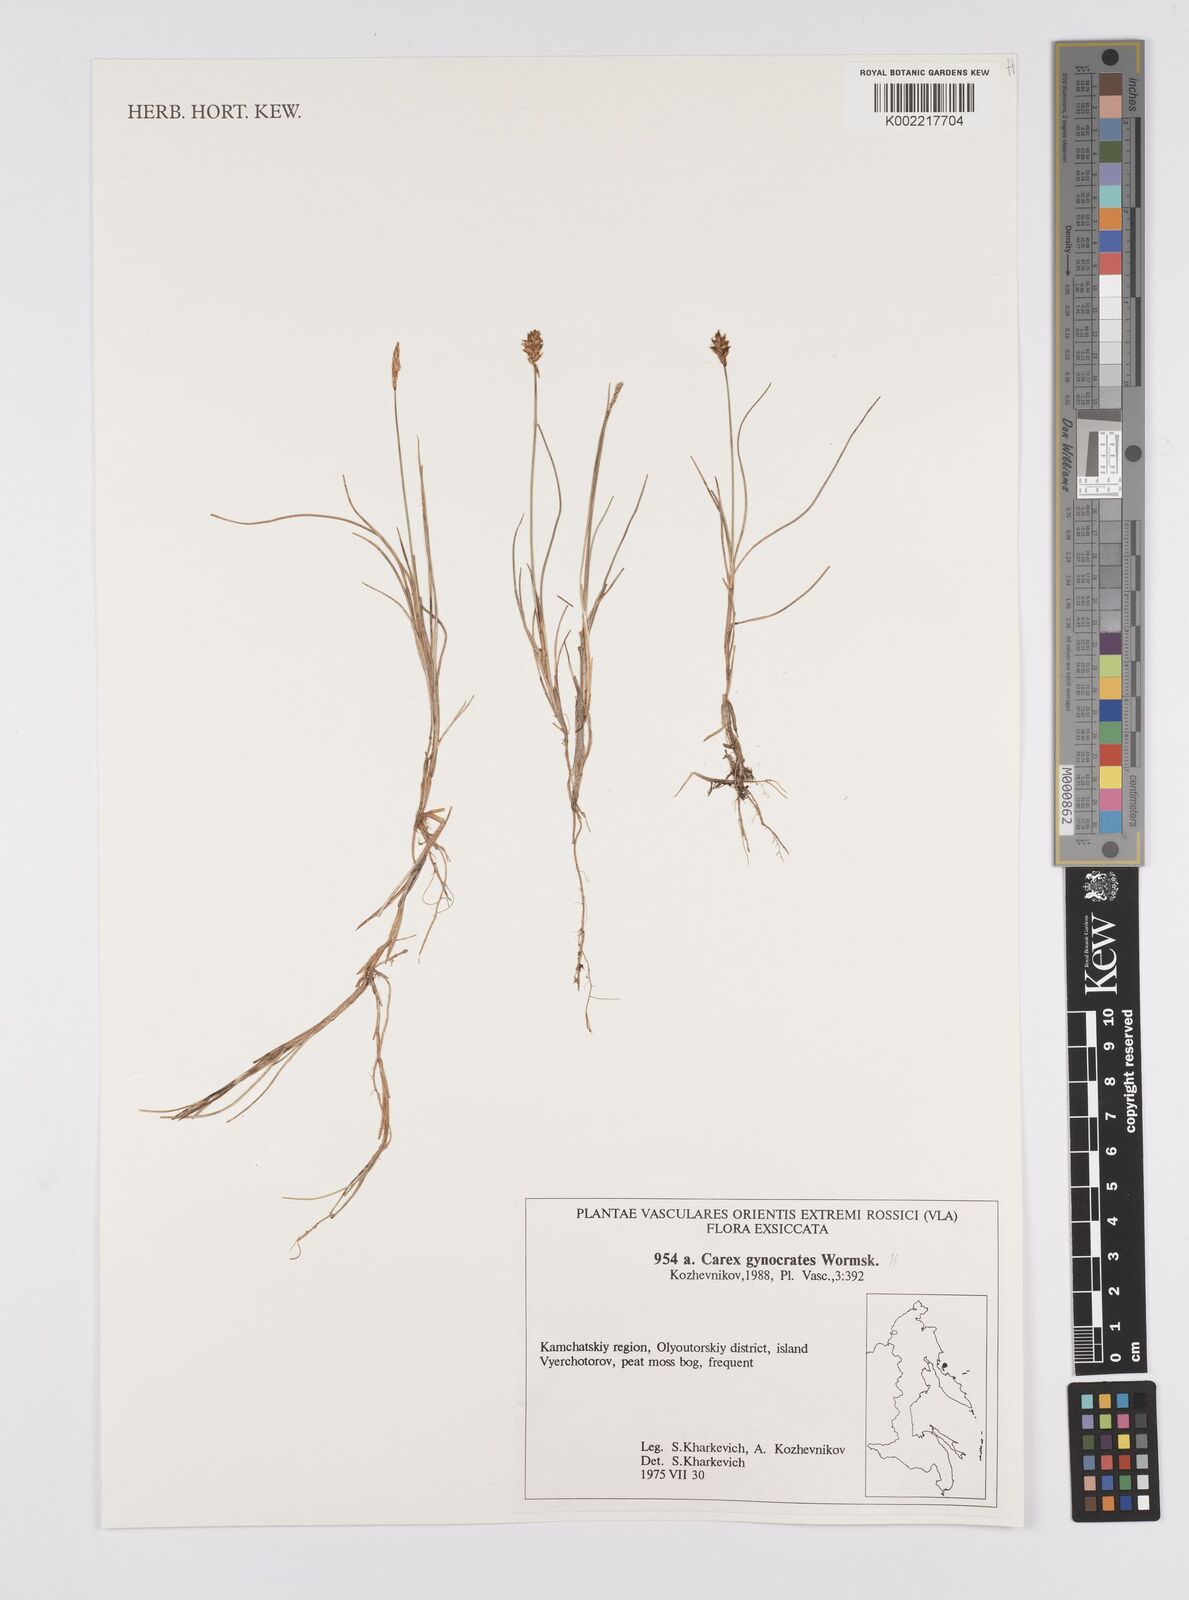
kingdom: Plantae
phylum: Tracheophyta
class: Liliopsida
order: Poales
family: Cyperaceae
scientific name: Cyperaceae
